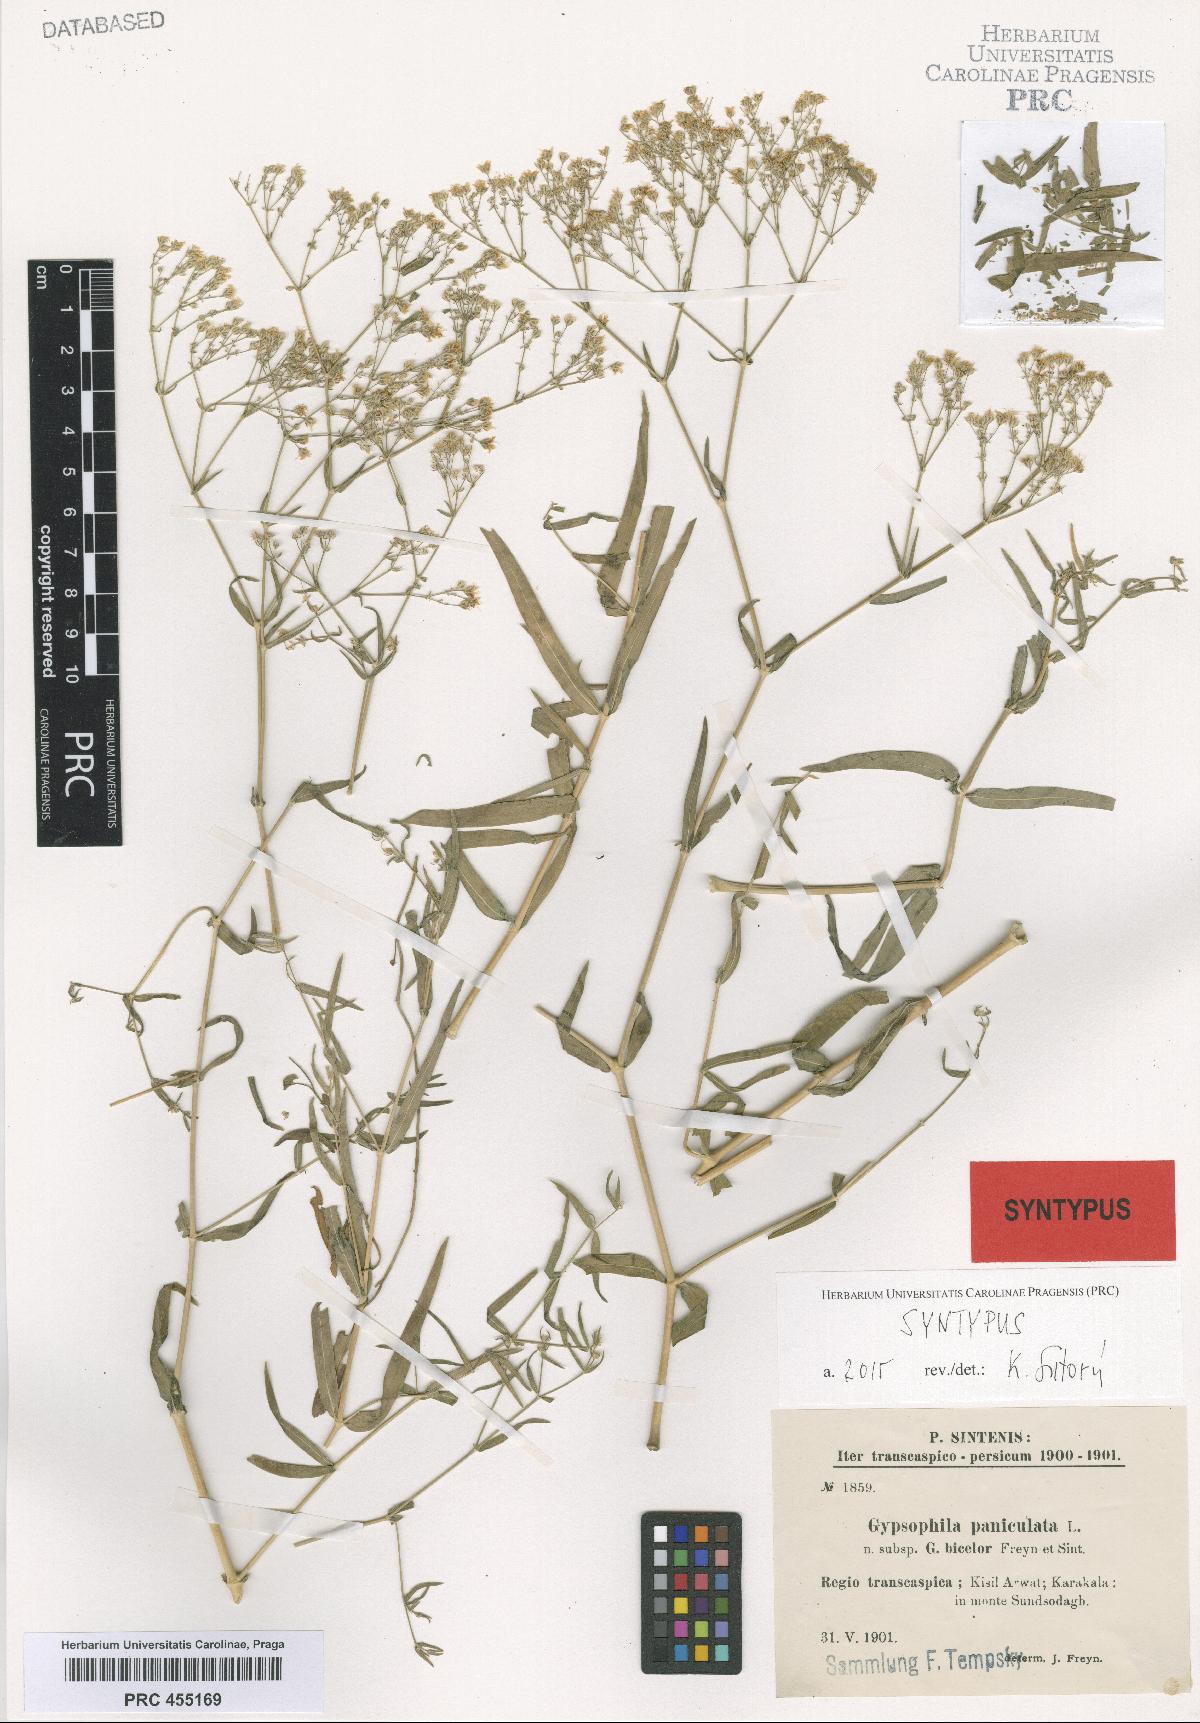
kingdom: Plantae
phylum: Tracheophyta
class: Magnoliopsida
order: Caryophyllales
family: Caryophyllaceae
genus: Gypsophila
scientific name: Gypsophila bicolor
